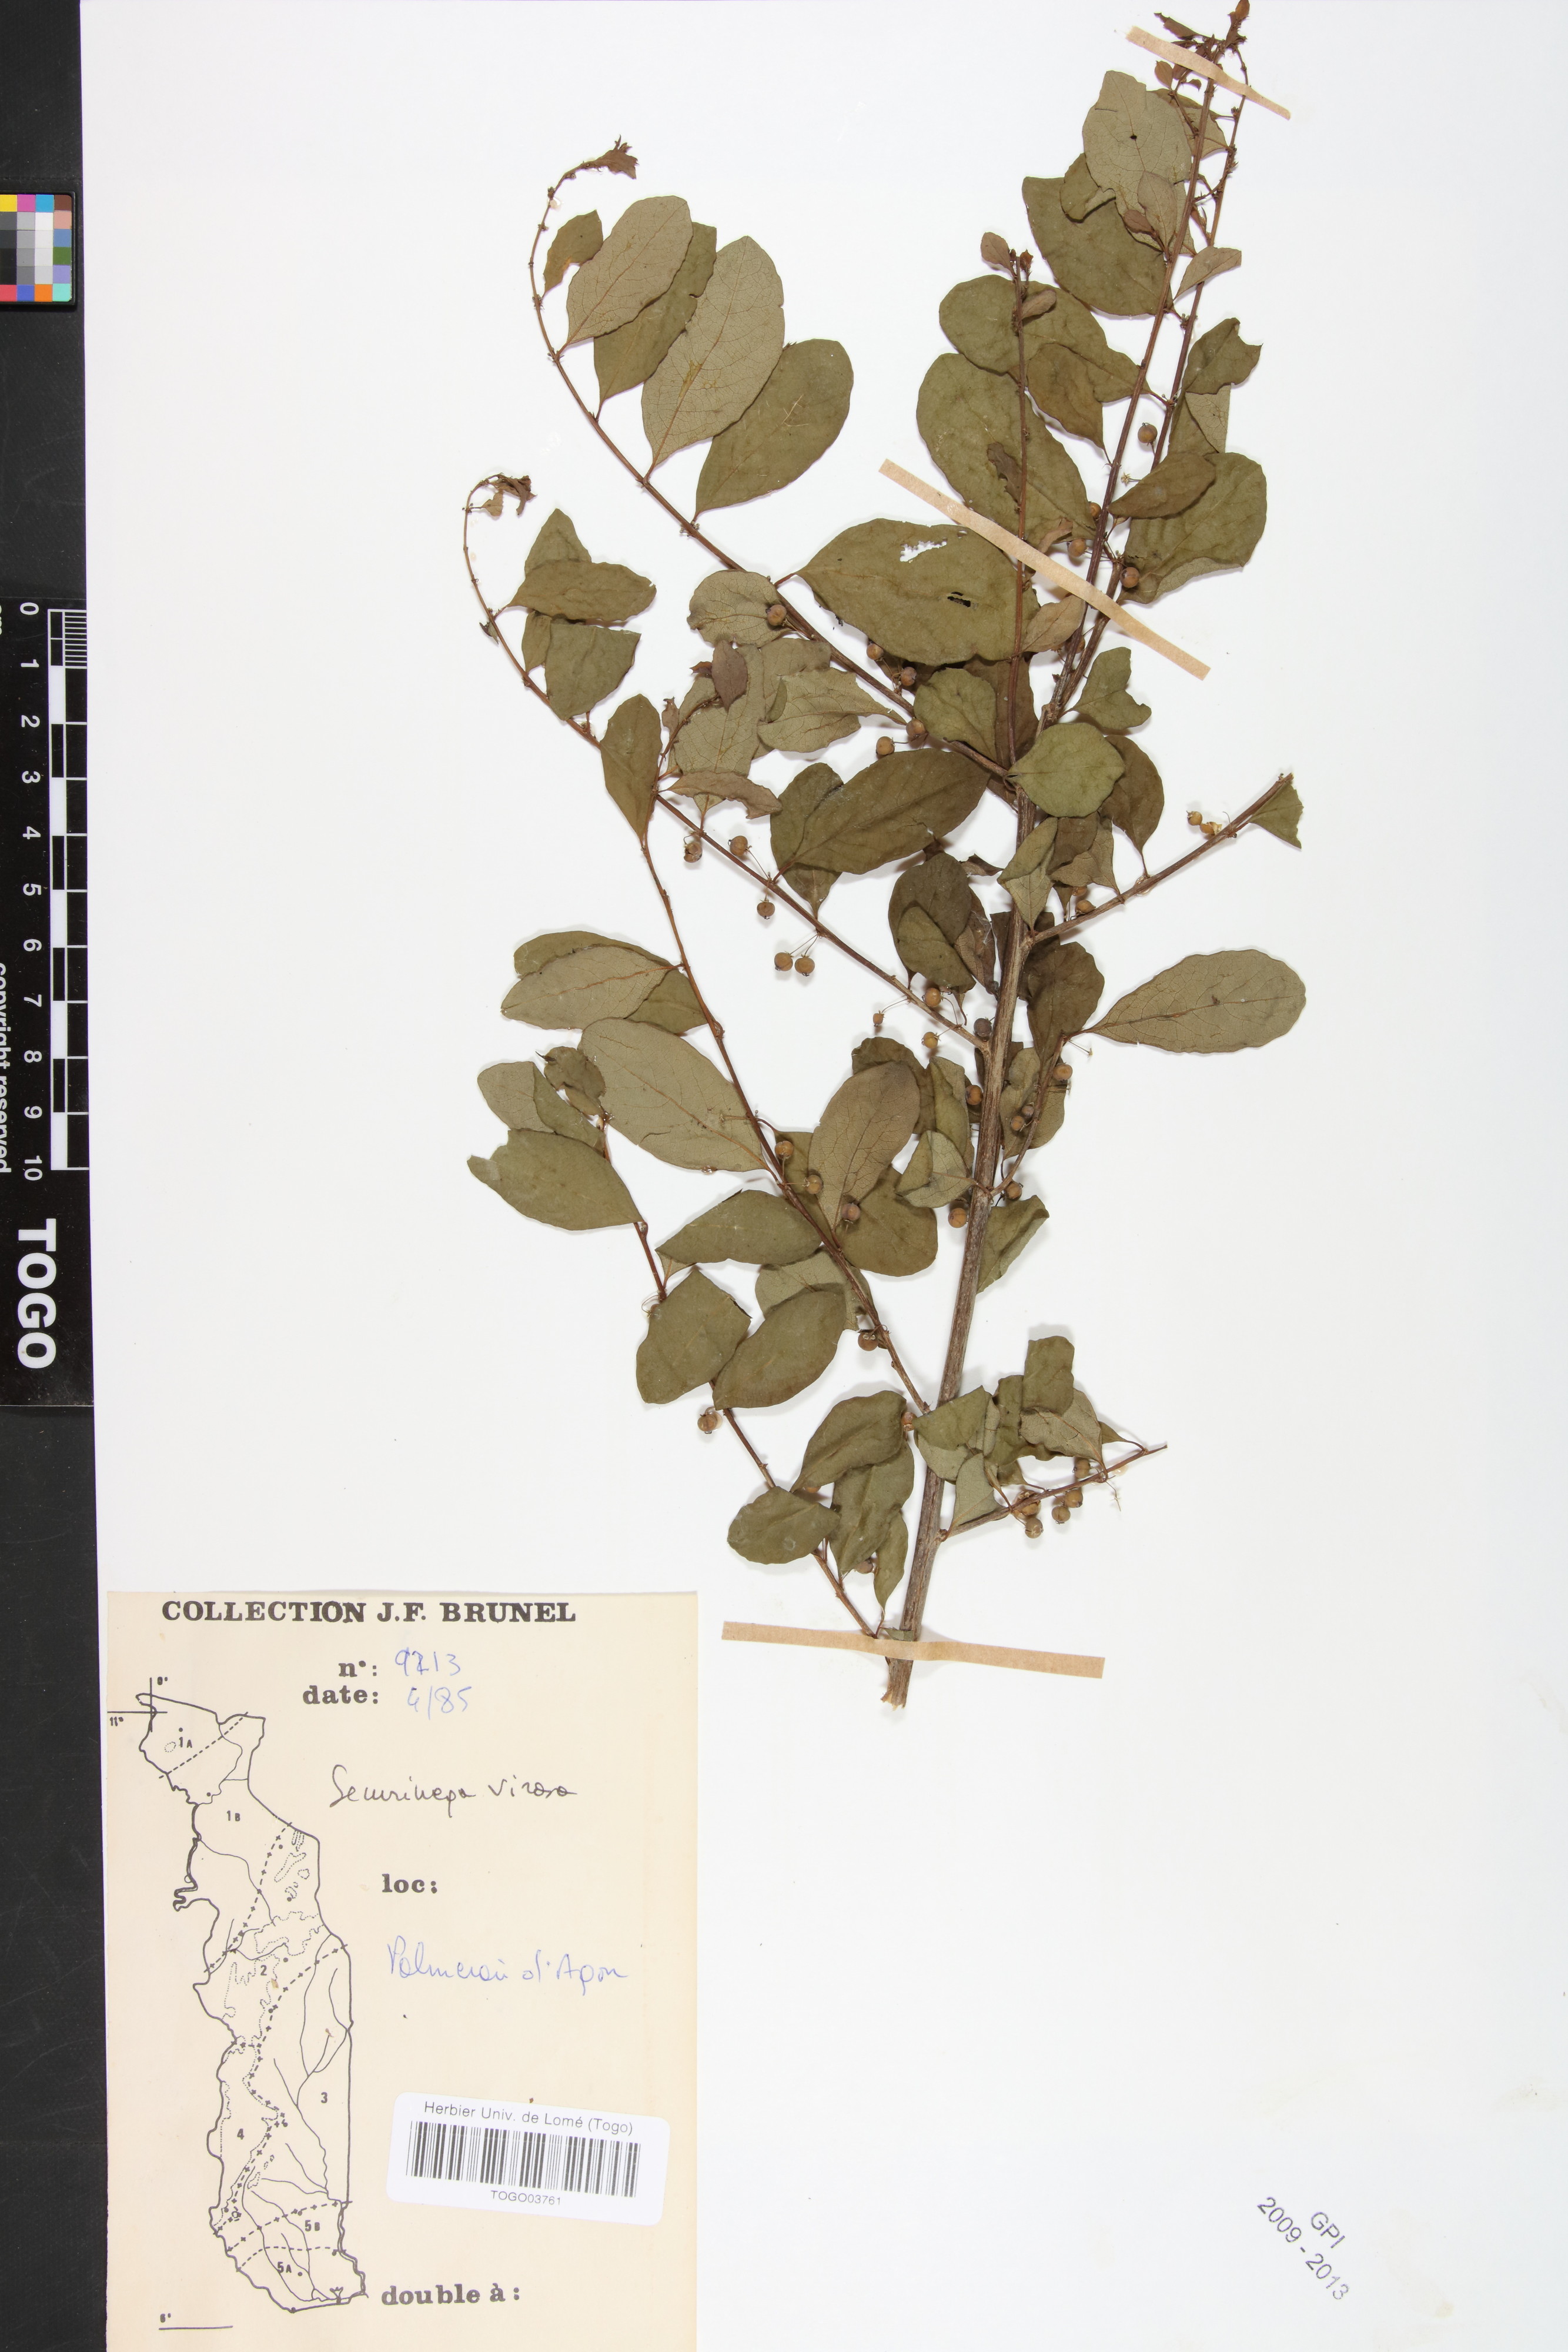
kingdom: Plantae
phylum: Tracheophyta
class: Magnoliopsida
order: Malpighiales
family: Phyllanthaceae
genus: Flueggea
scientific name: Flueggea virosa
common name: Common bushweed
